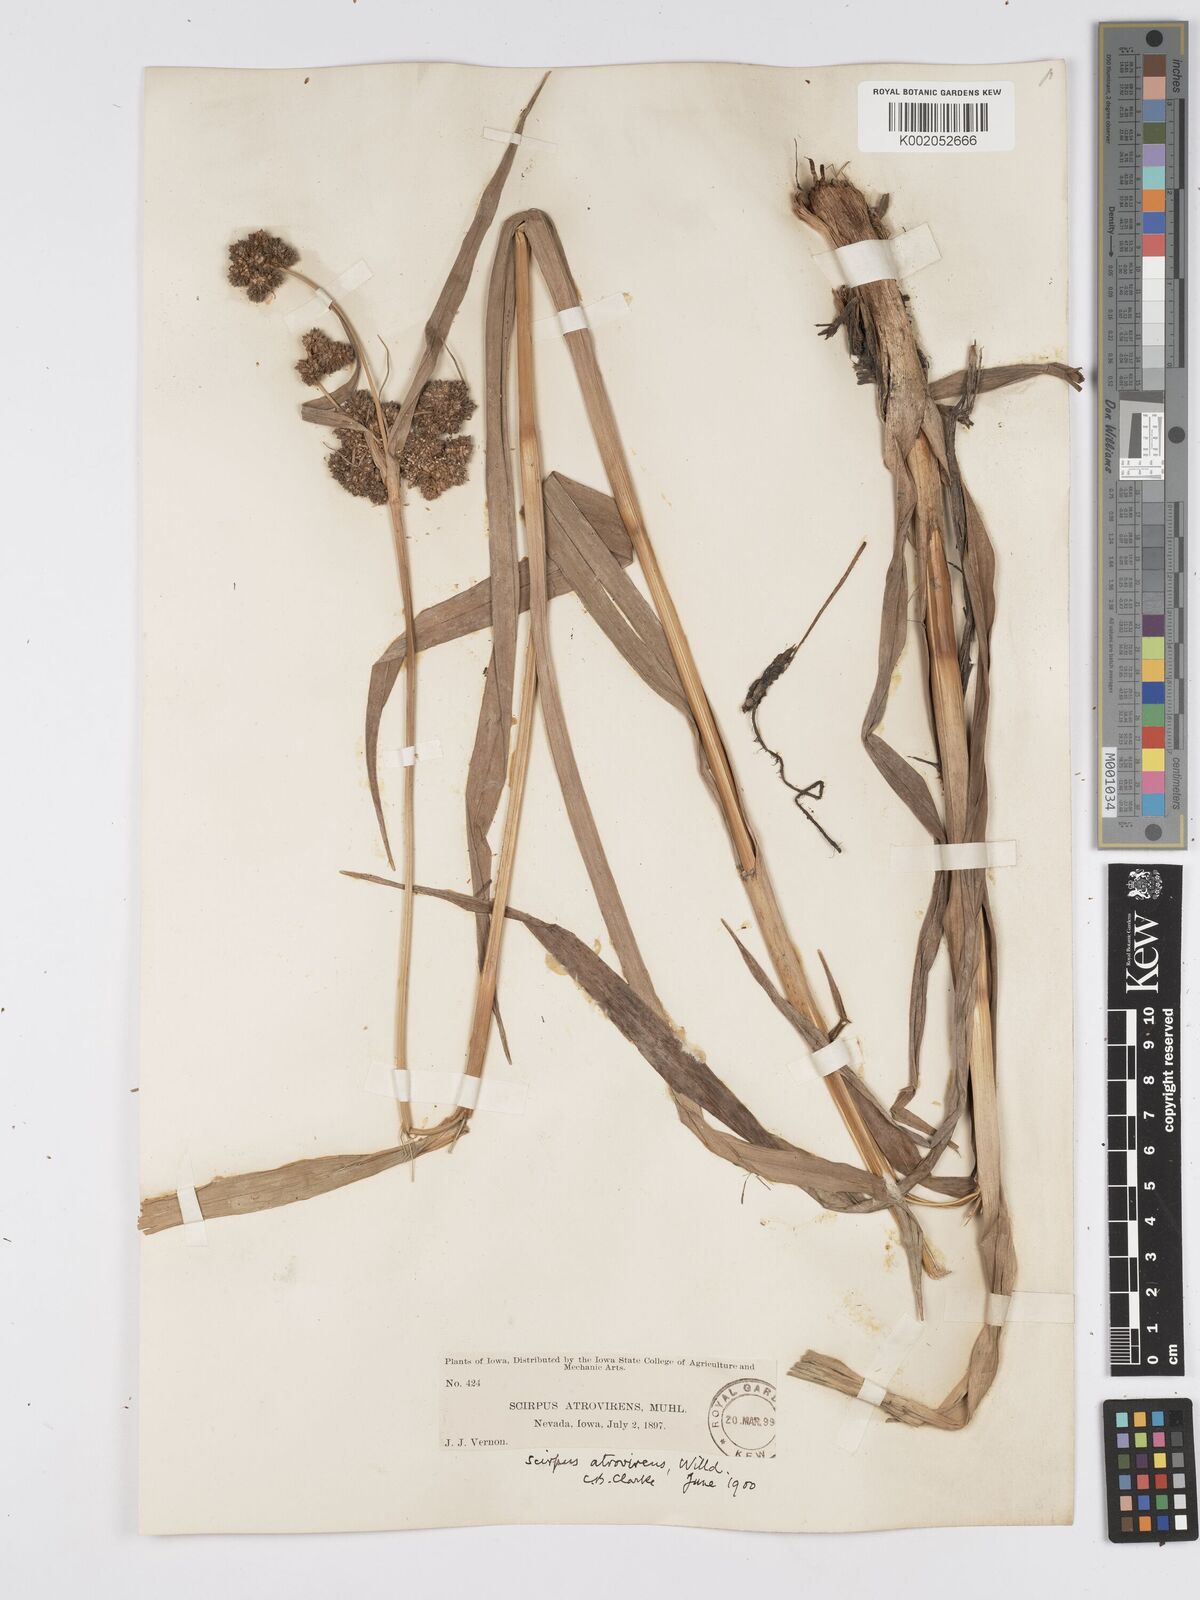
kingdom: Plantae
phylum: Tracheophyta
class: Liliopsida
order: Poales
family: Cyperaceae
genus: Scirpus
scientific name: Scirpus atrovirens
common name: Black bulrush
